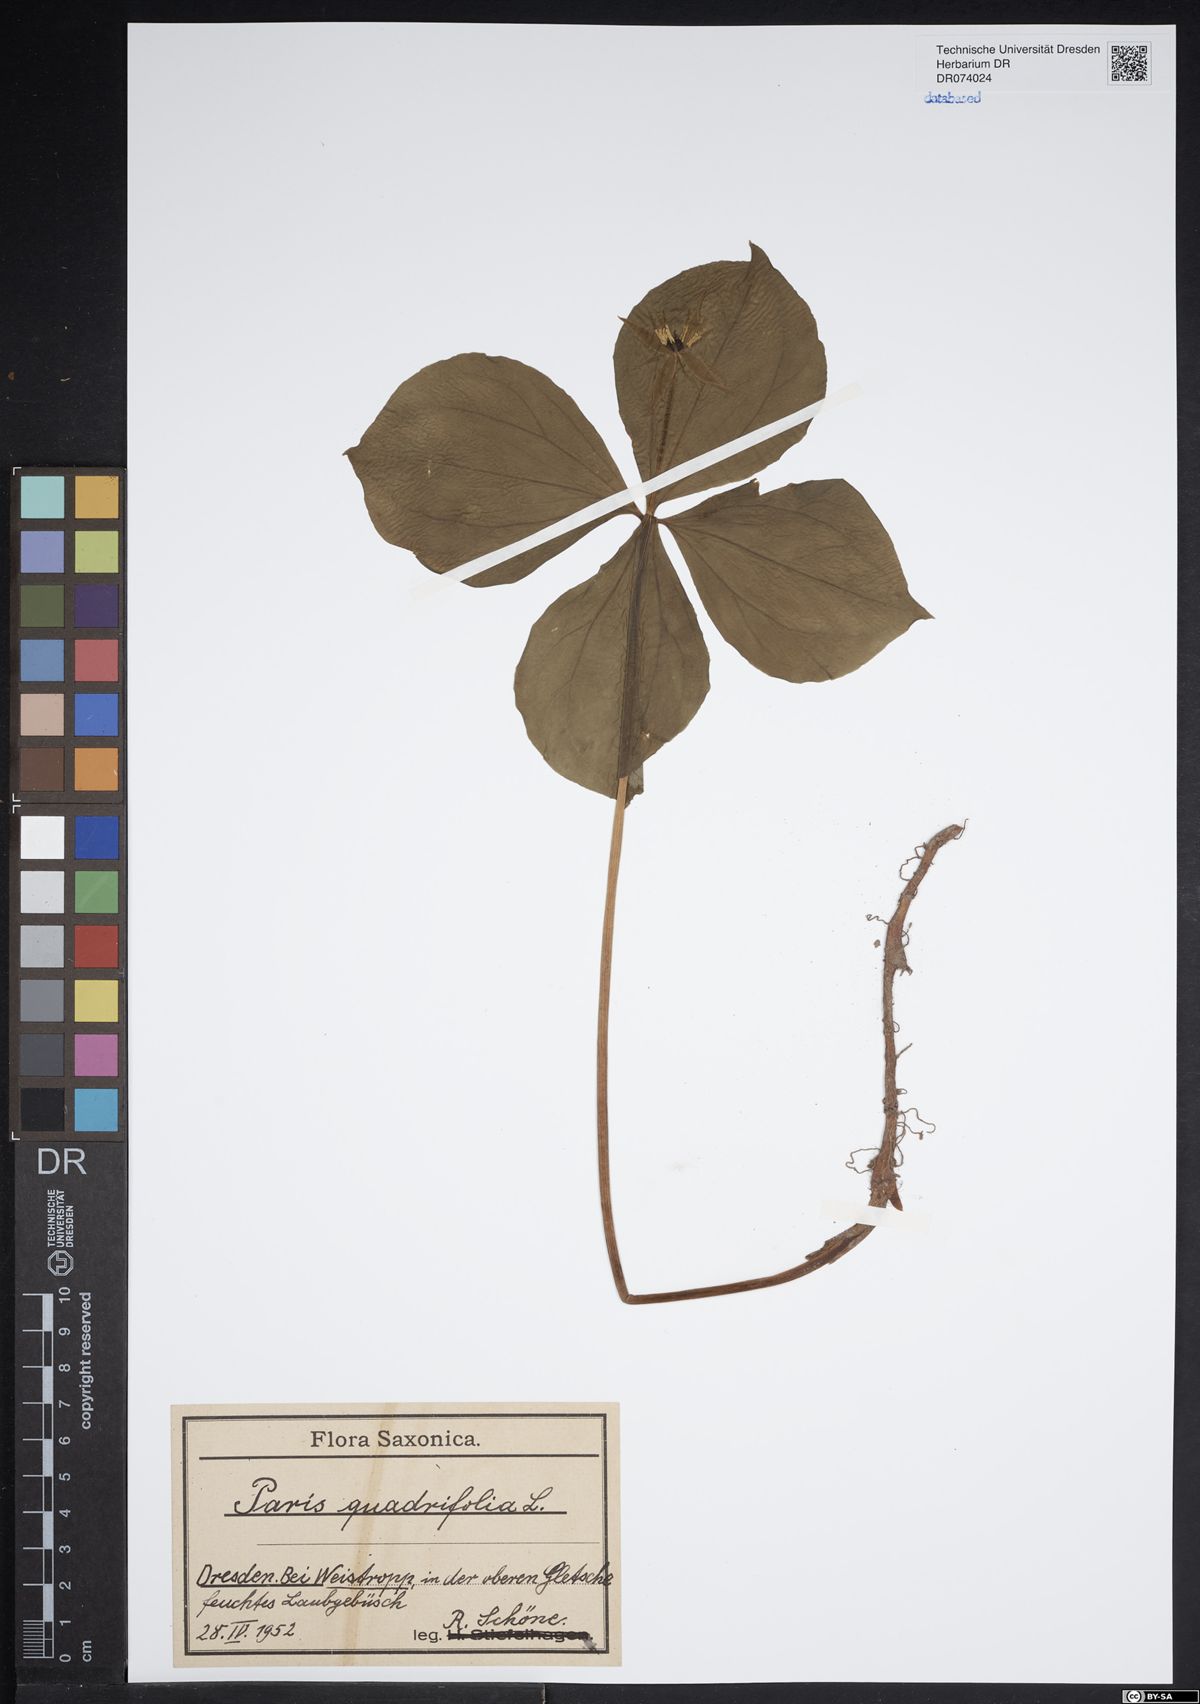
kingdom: Plantae
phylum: Tracheophyta
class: Liliopsida
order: Liliales
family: Melanthiaceae
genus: Paris
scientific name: Paris quadrifolia
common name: Herb-paris
